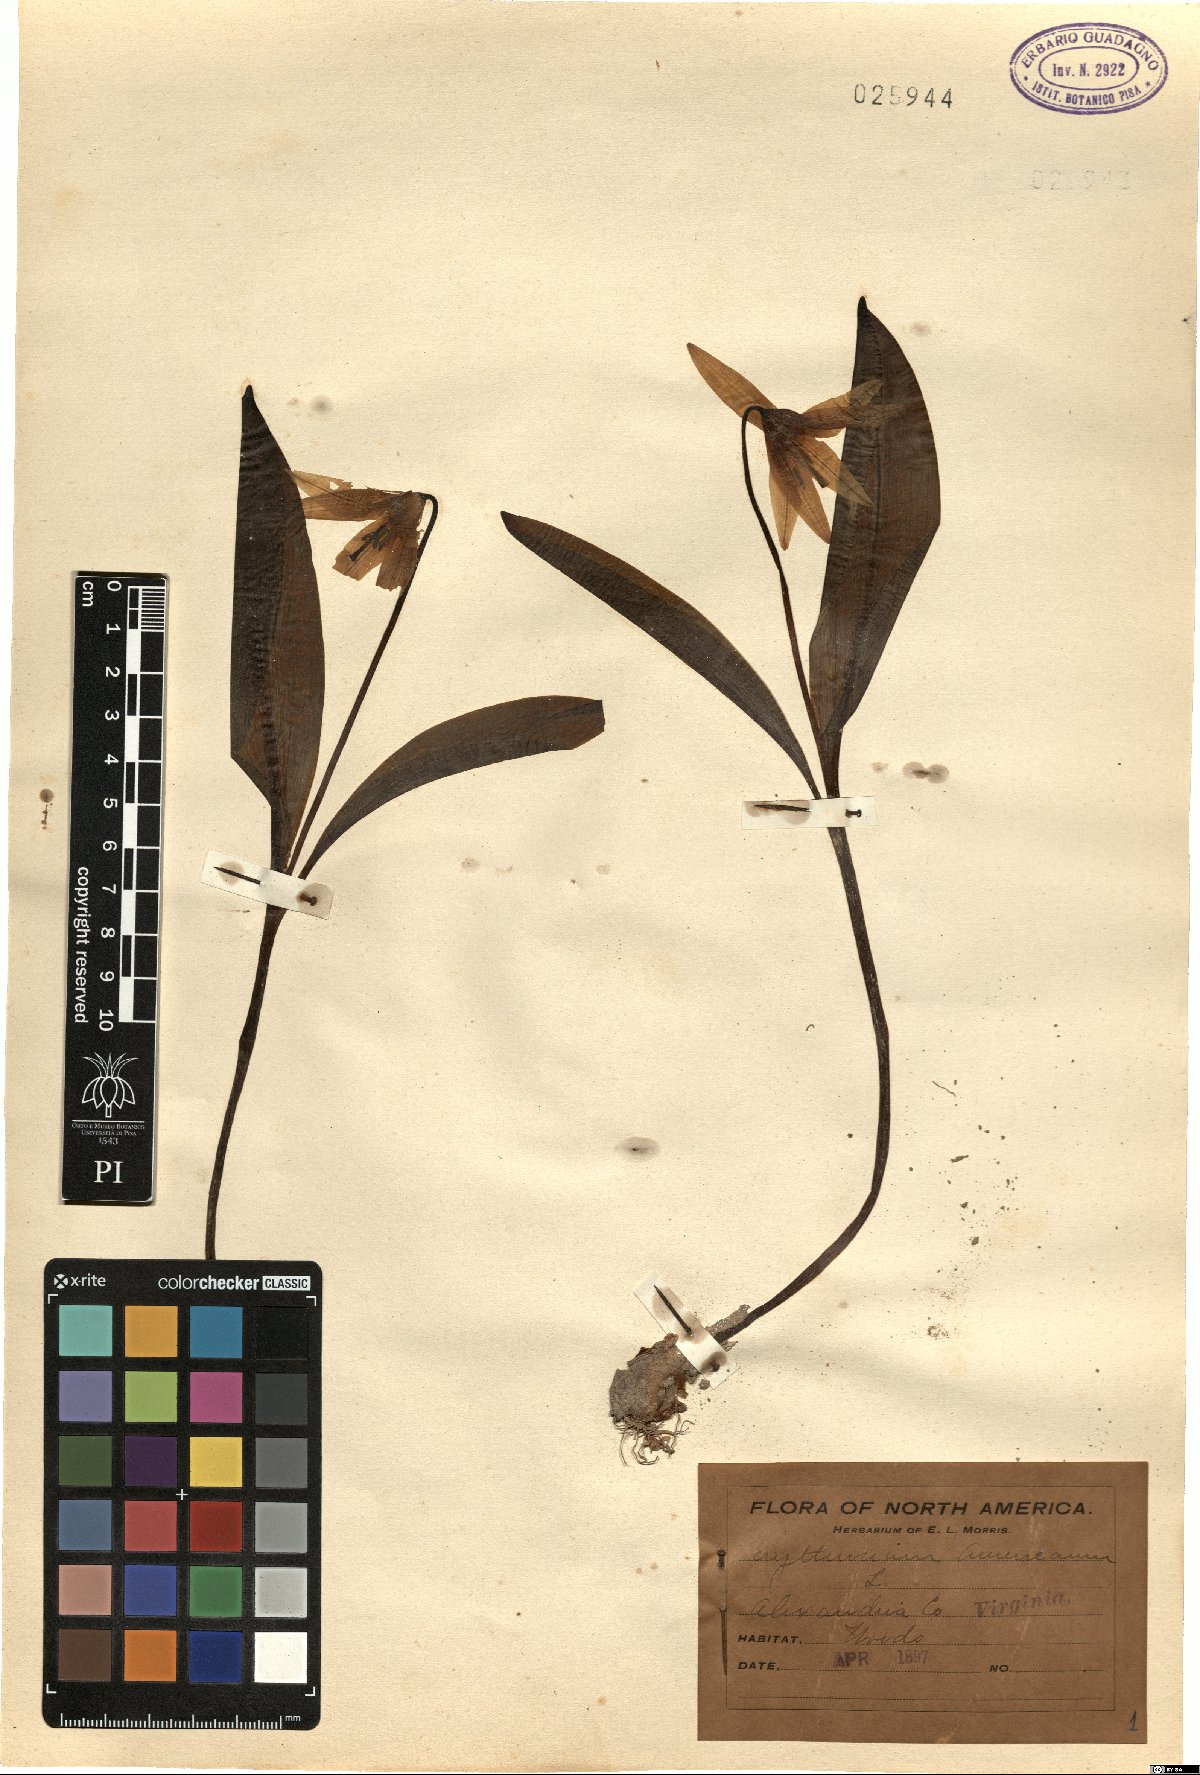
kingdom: Plantae
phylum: Tracheophyta
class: Liliopsida
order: Liliales
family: Liliaceae
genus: Erythronium
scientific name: Erythronium americanum
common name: Yellow adder's-tongue
